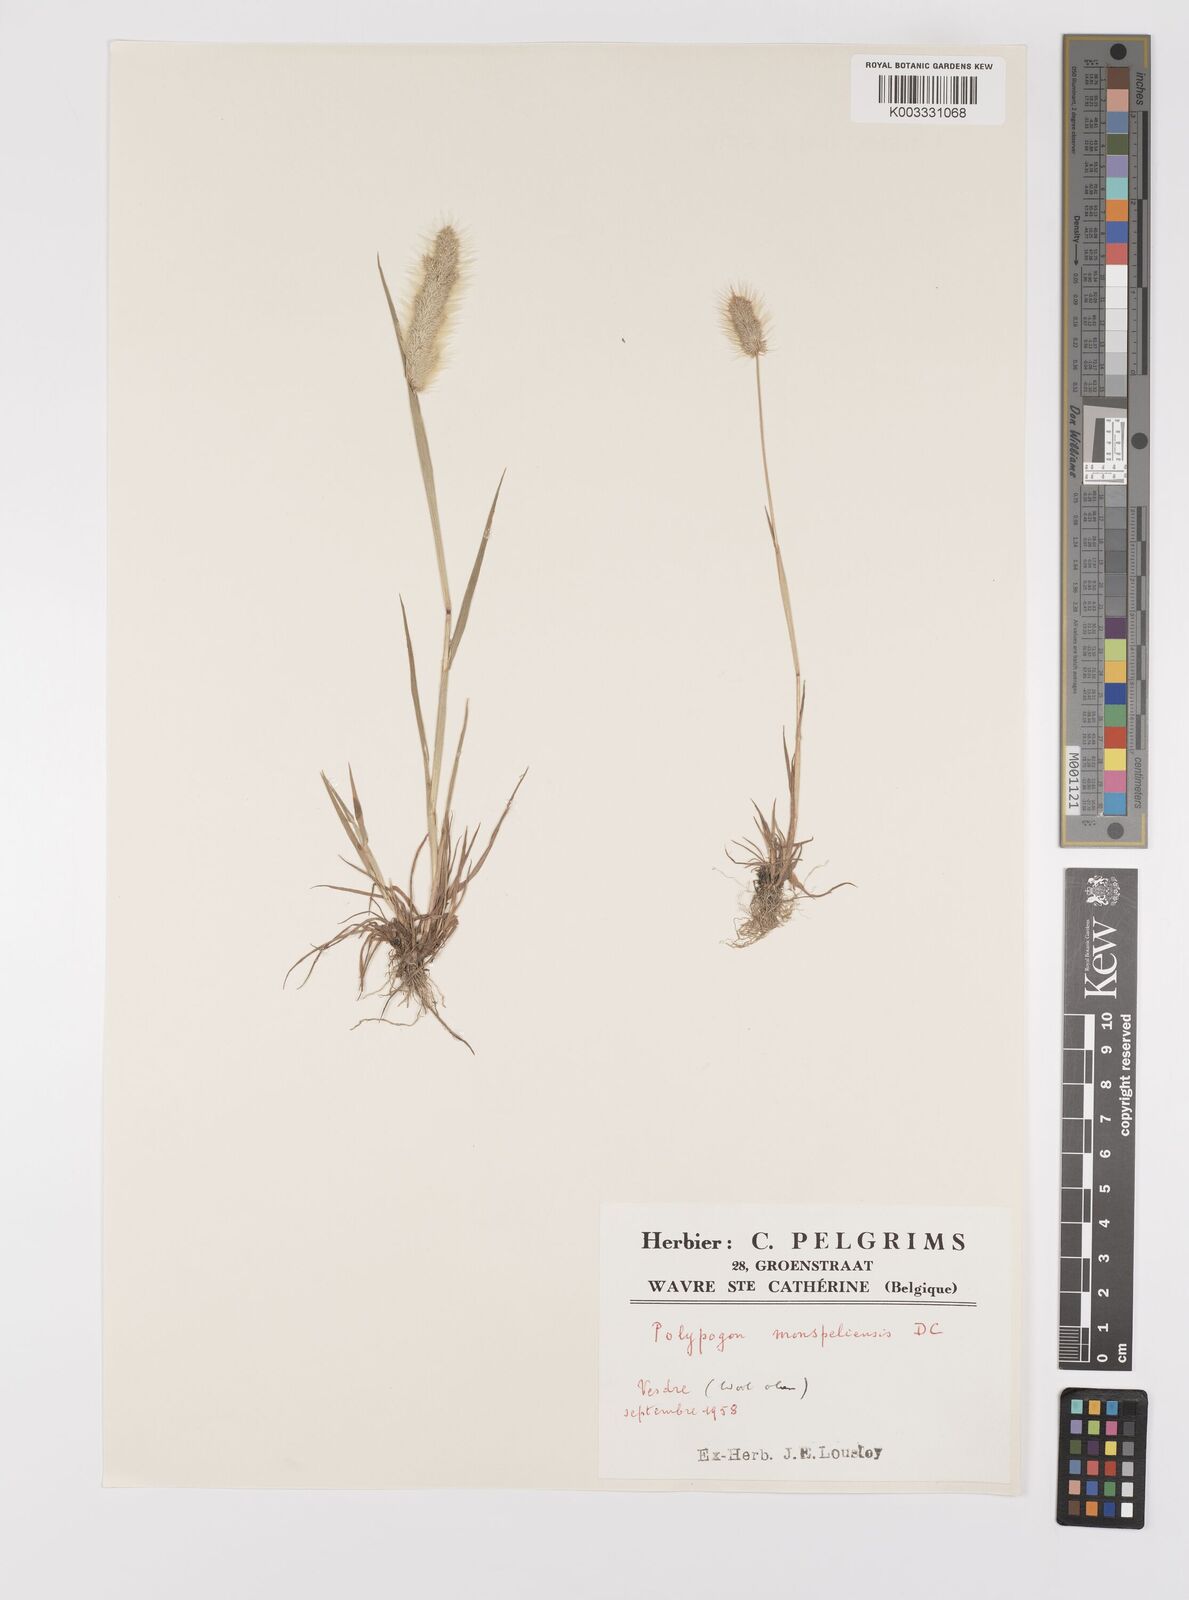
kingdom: Plantae
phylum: Tracheophyta
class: Liliopsida
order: Poales
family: Poaceae
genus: Polypogon
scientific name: Polypogon monspeliensis
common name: Annual rabbitsfoot grass
